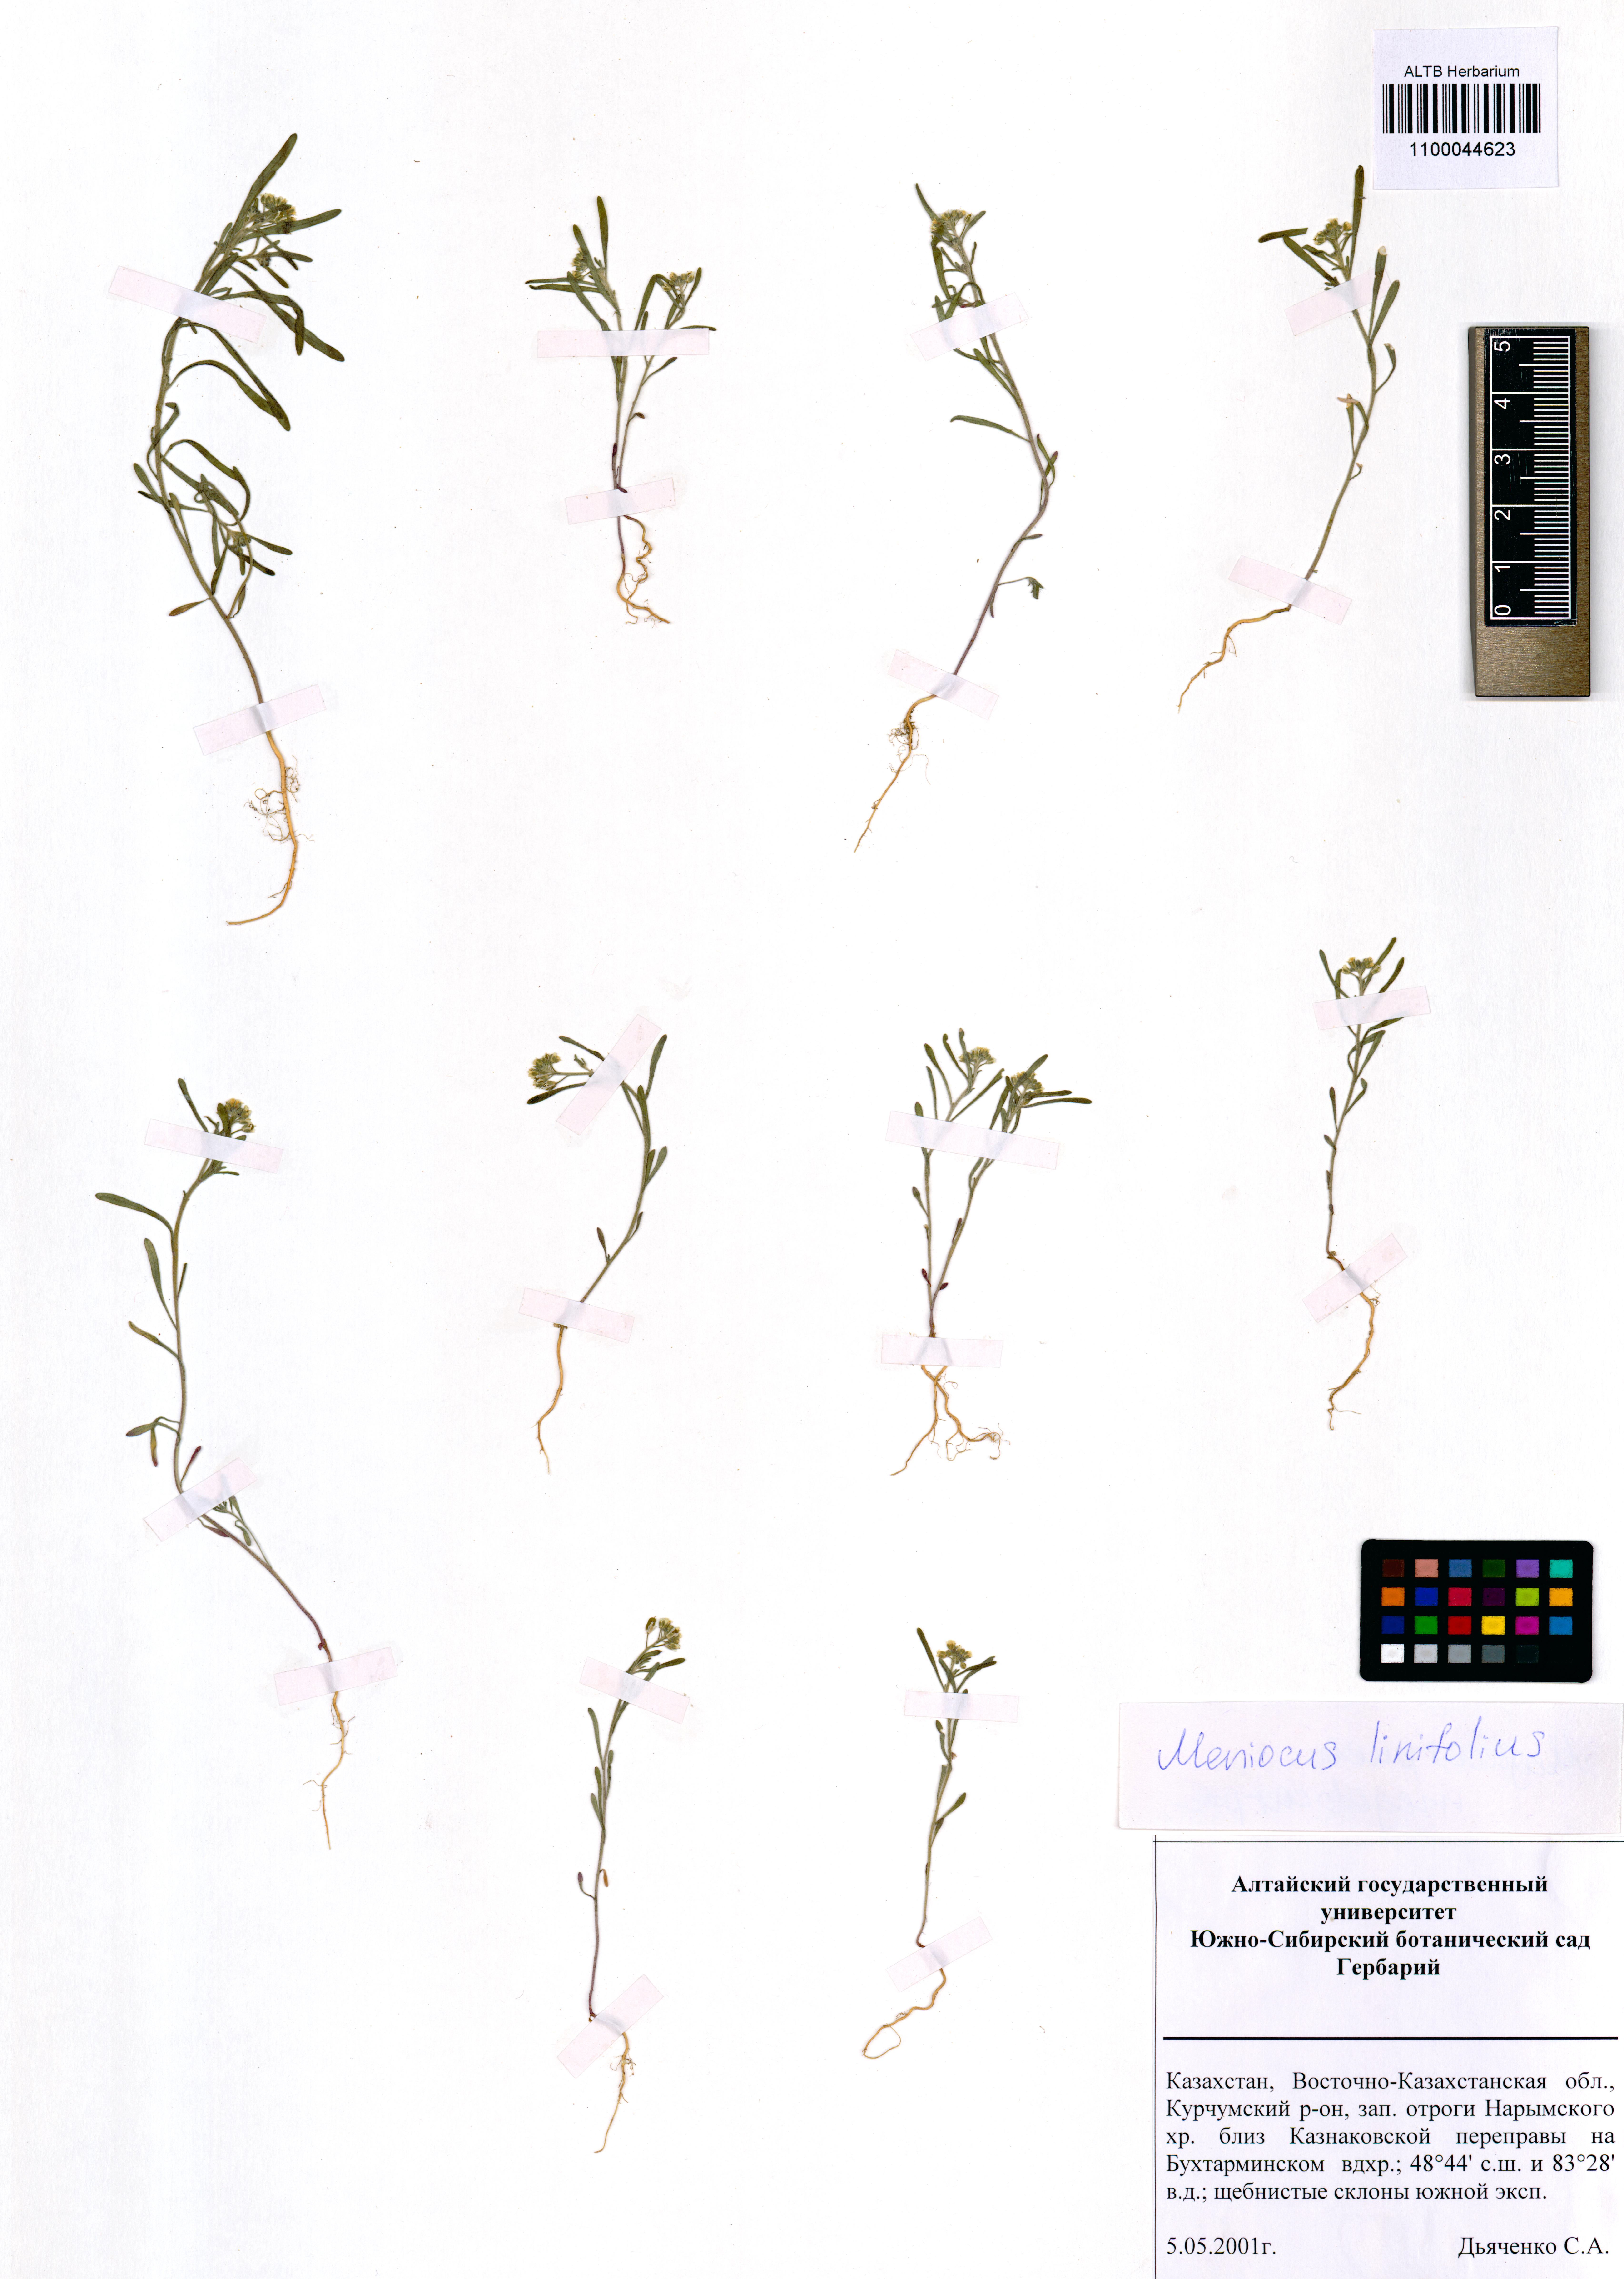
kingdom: Plantae
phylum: Tracheophyta
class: Magnoliopsida
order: Brassicales
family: Brassicaceae
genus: Meniocus
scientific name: Meniocus linifolius
